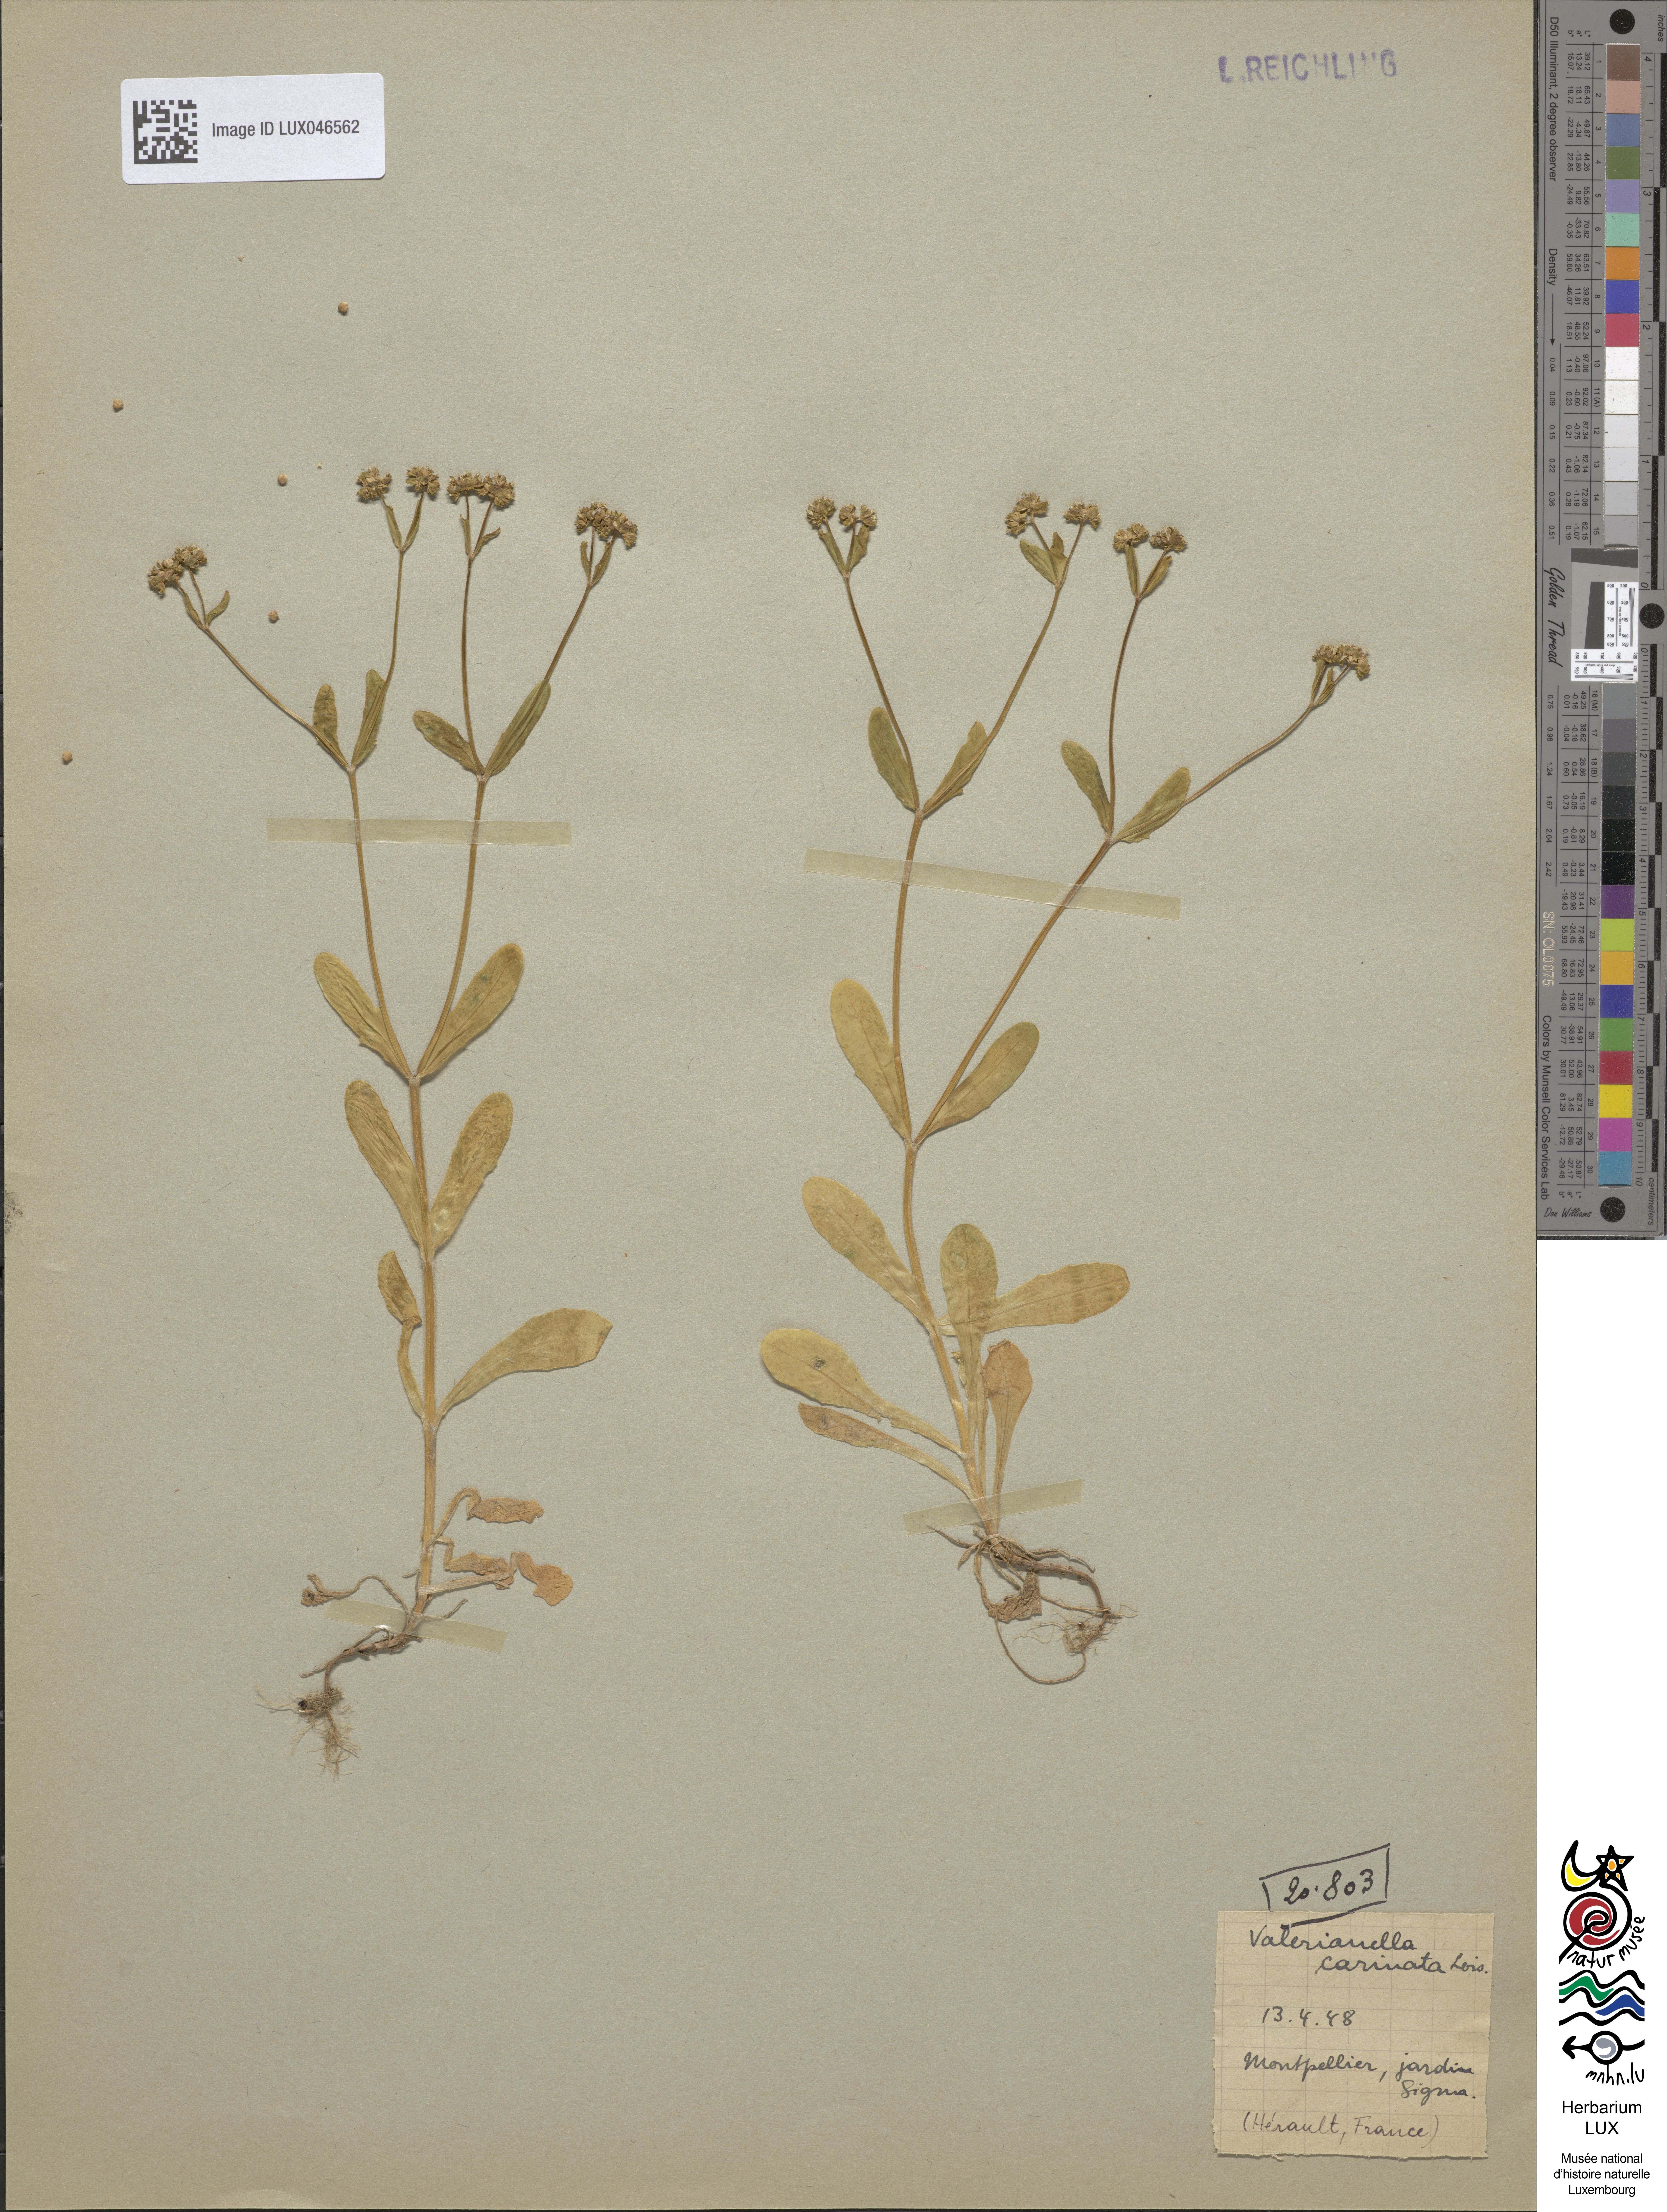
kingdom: Plantae
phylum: Tracheophyta
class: Magnoliopsida
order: Dipsacales
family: Caprifoliaceae
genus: Valerianella
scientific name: Valerianella carinata
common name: Keeled-fruited cornsalad
